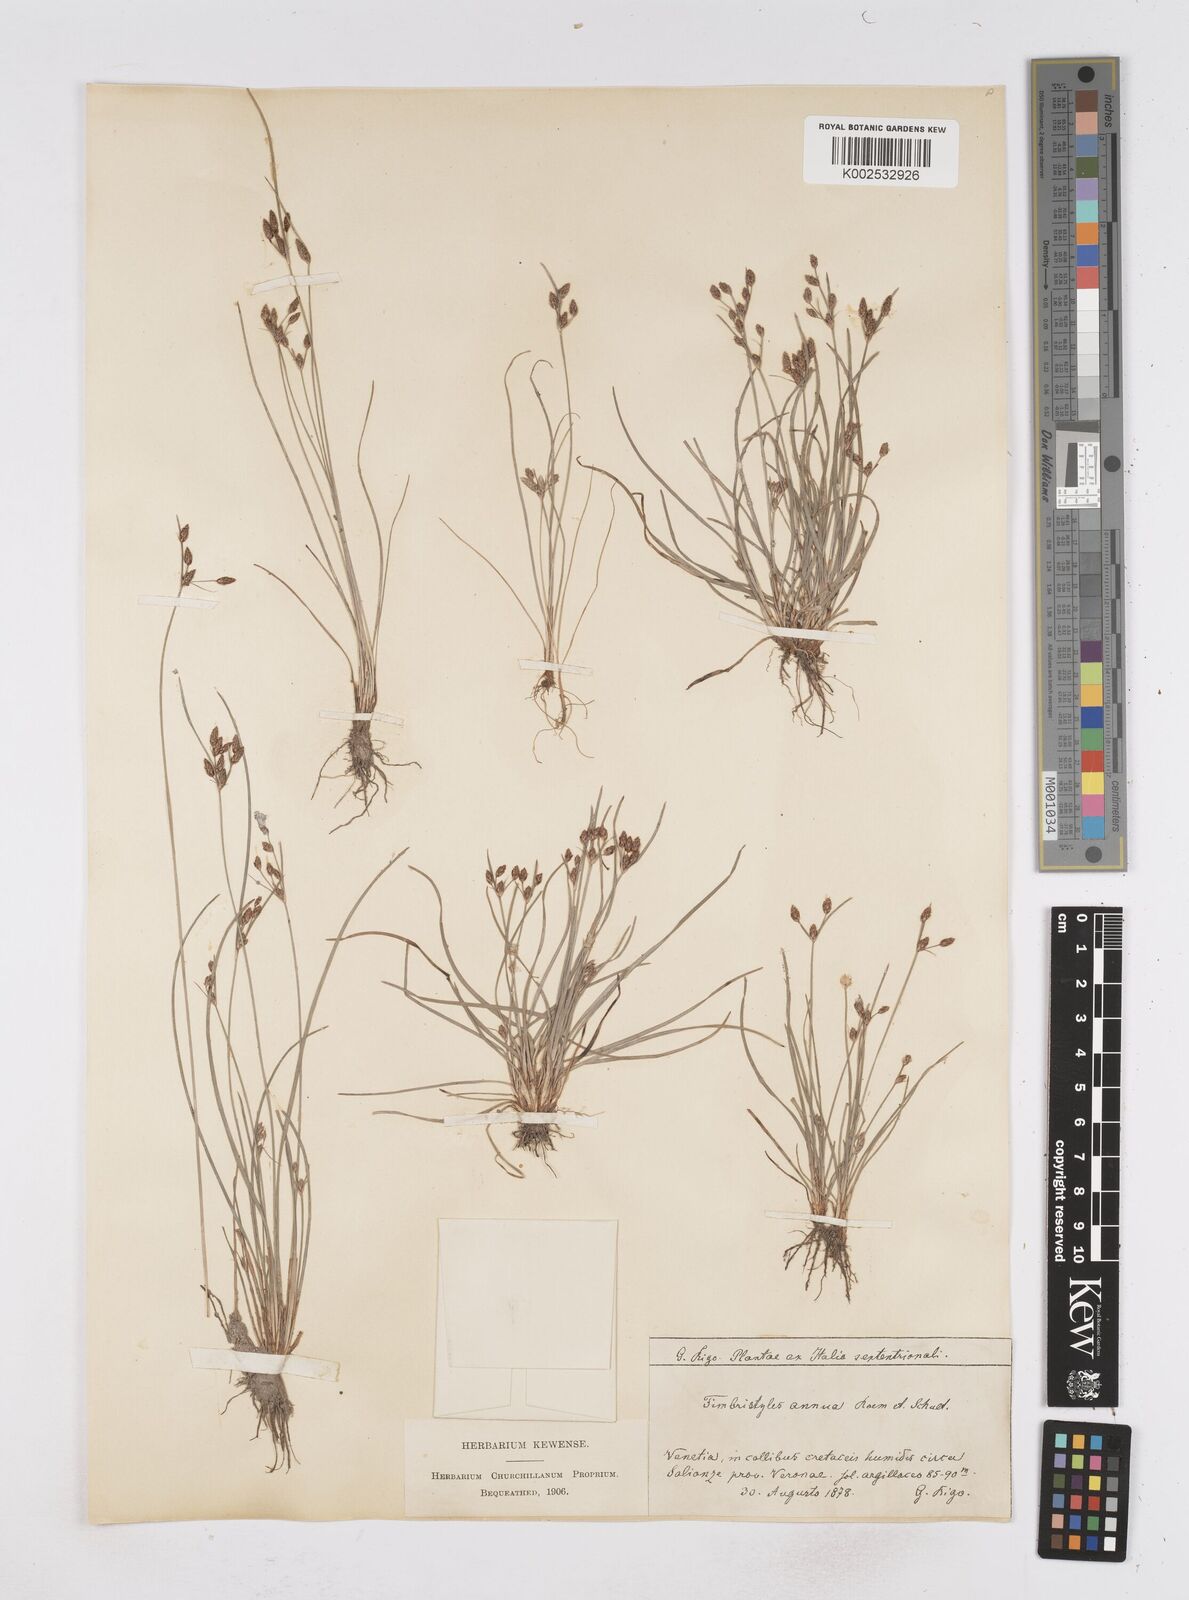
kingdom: Plantae
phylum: Tracheophyta
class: Liliopsida
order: Poales
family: Cyperaceae
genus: Fimbristylis
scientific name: Fimbristylis dichotoma
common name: Forked fimbry
